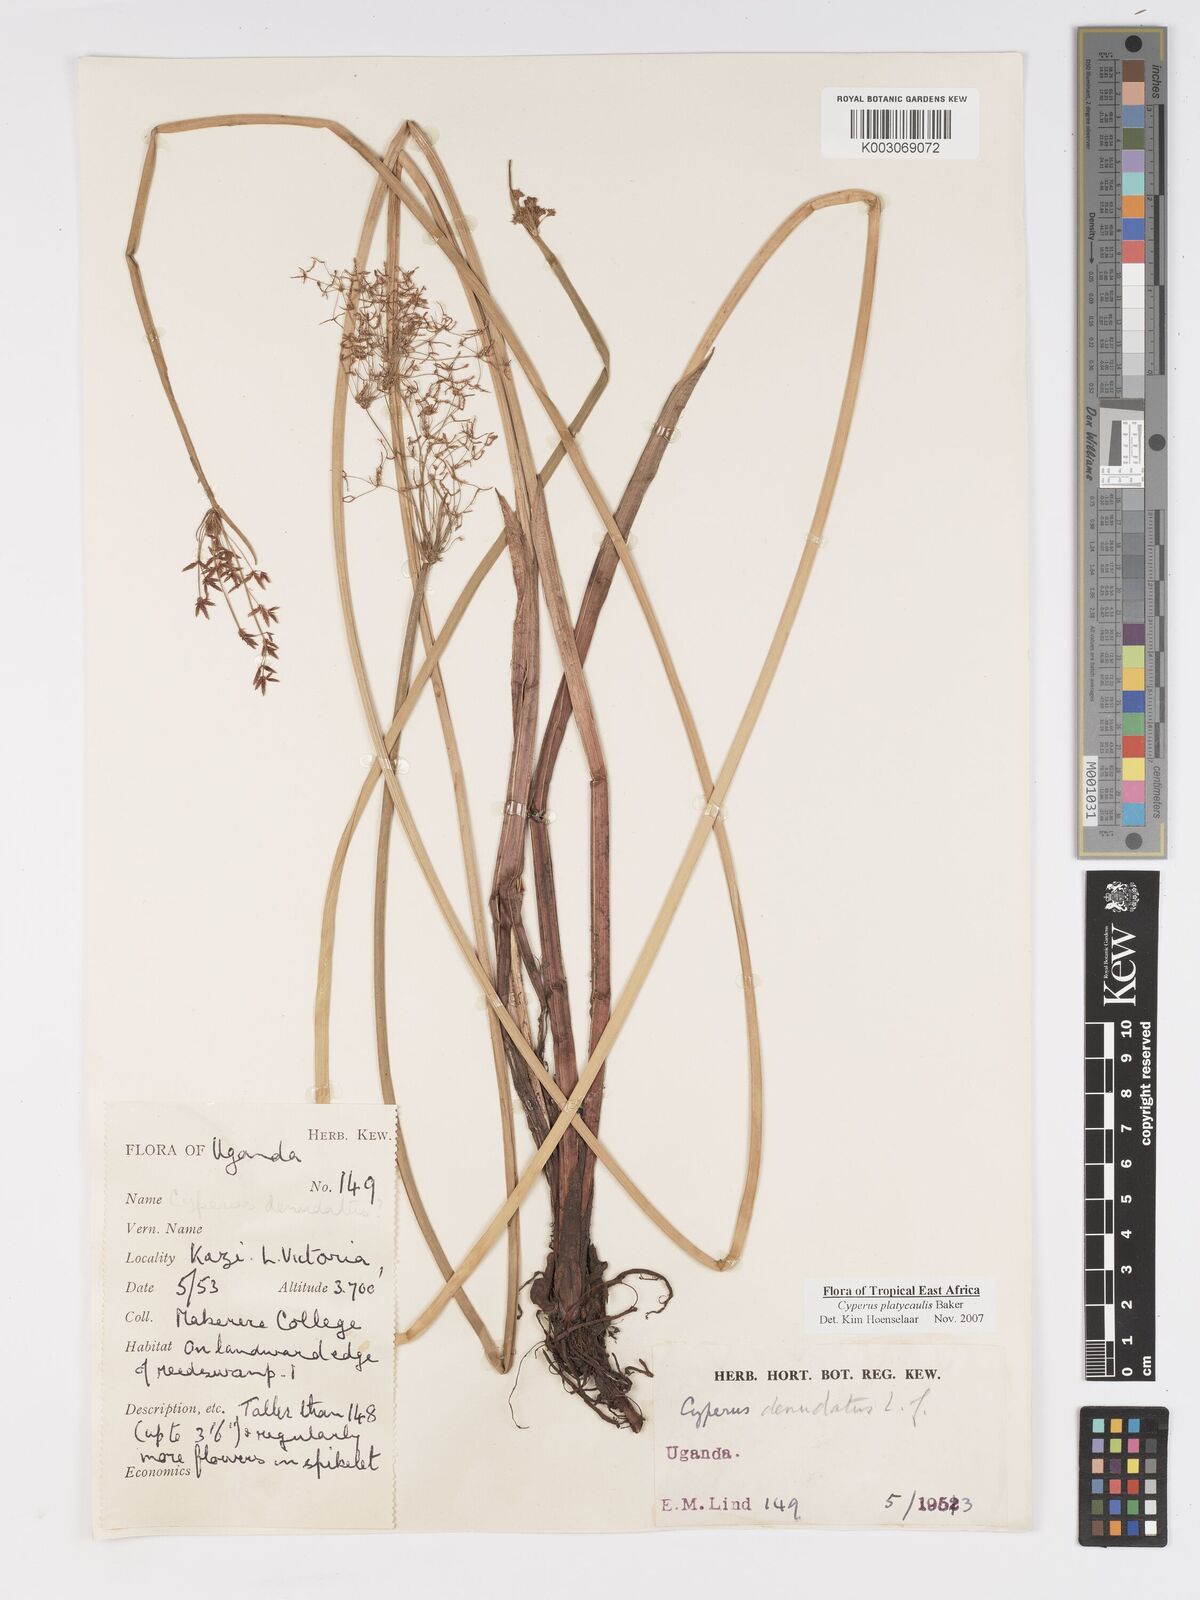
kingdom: Plantae
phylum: Tracheophyta
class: Liliopsida
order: Poales
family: Cyperaceae
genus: Cyperus
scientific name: Cyperus platycaulis
